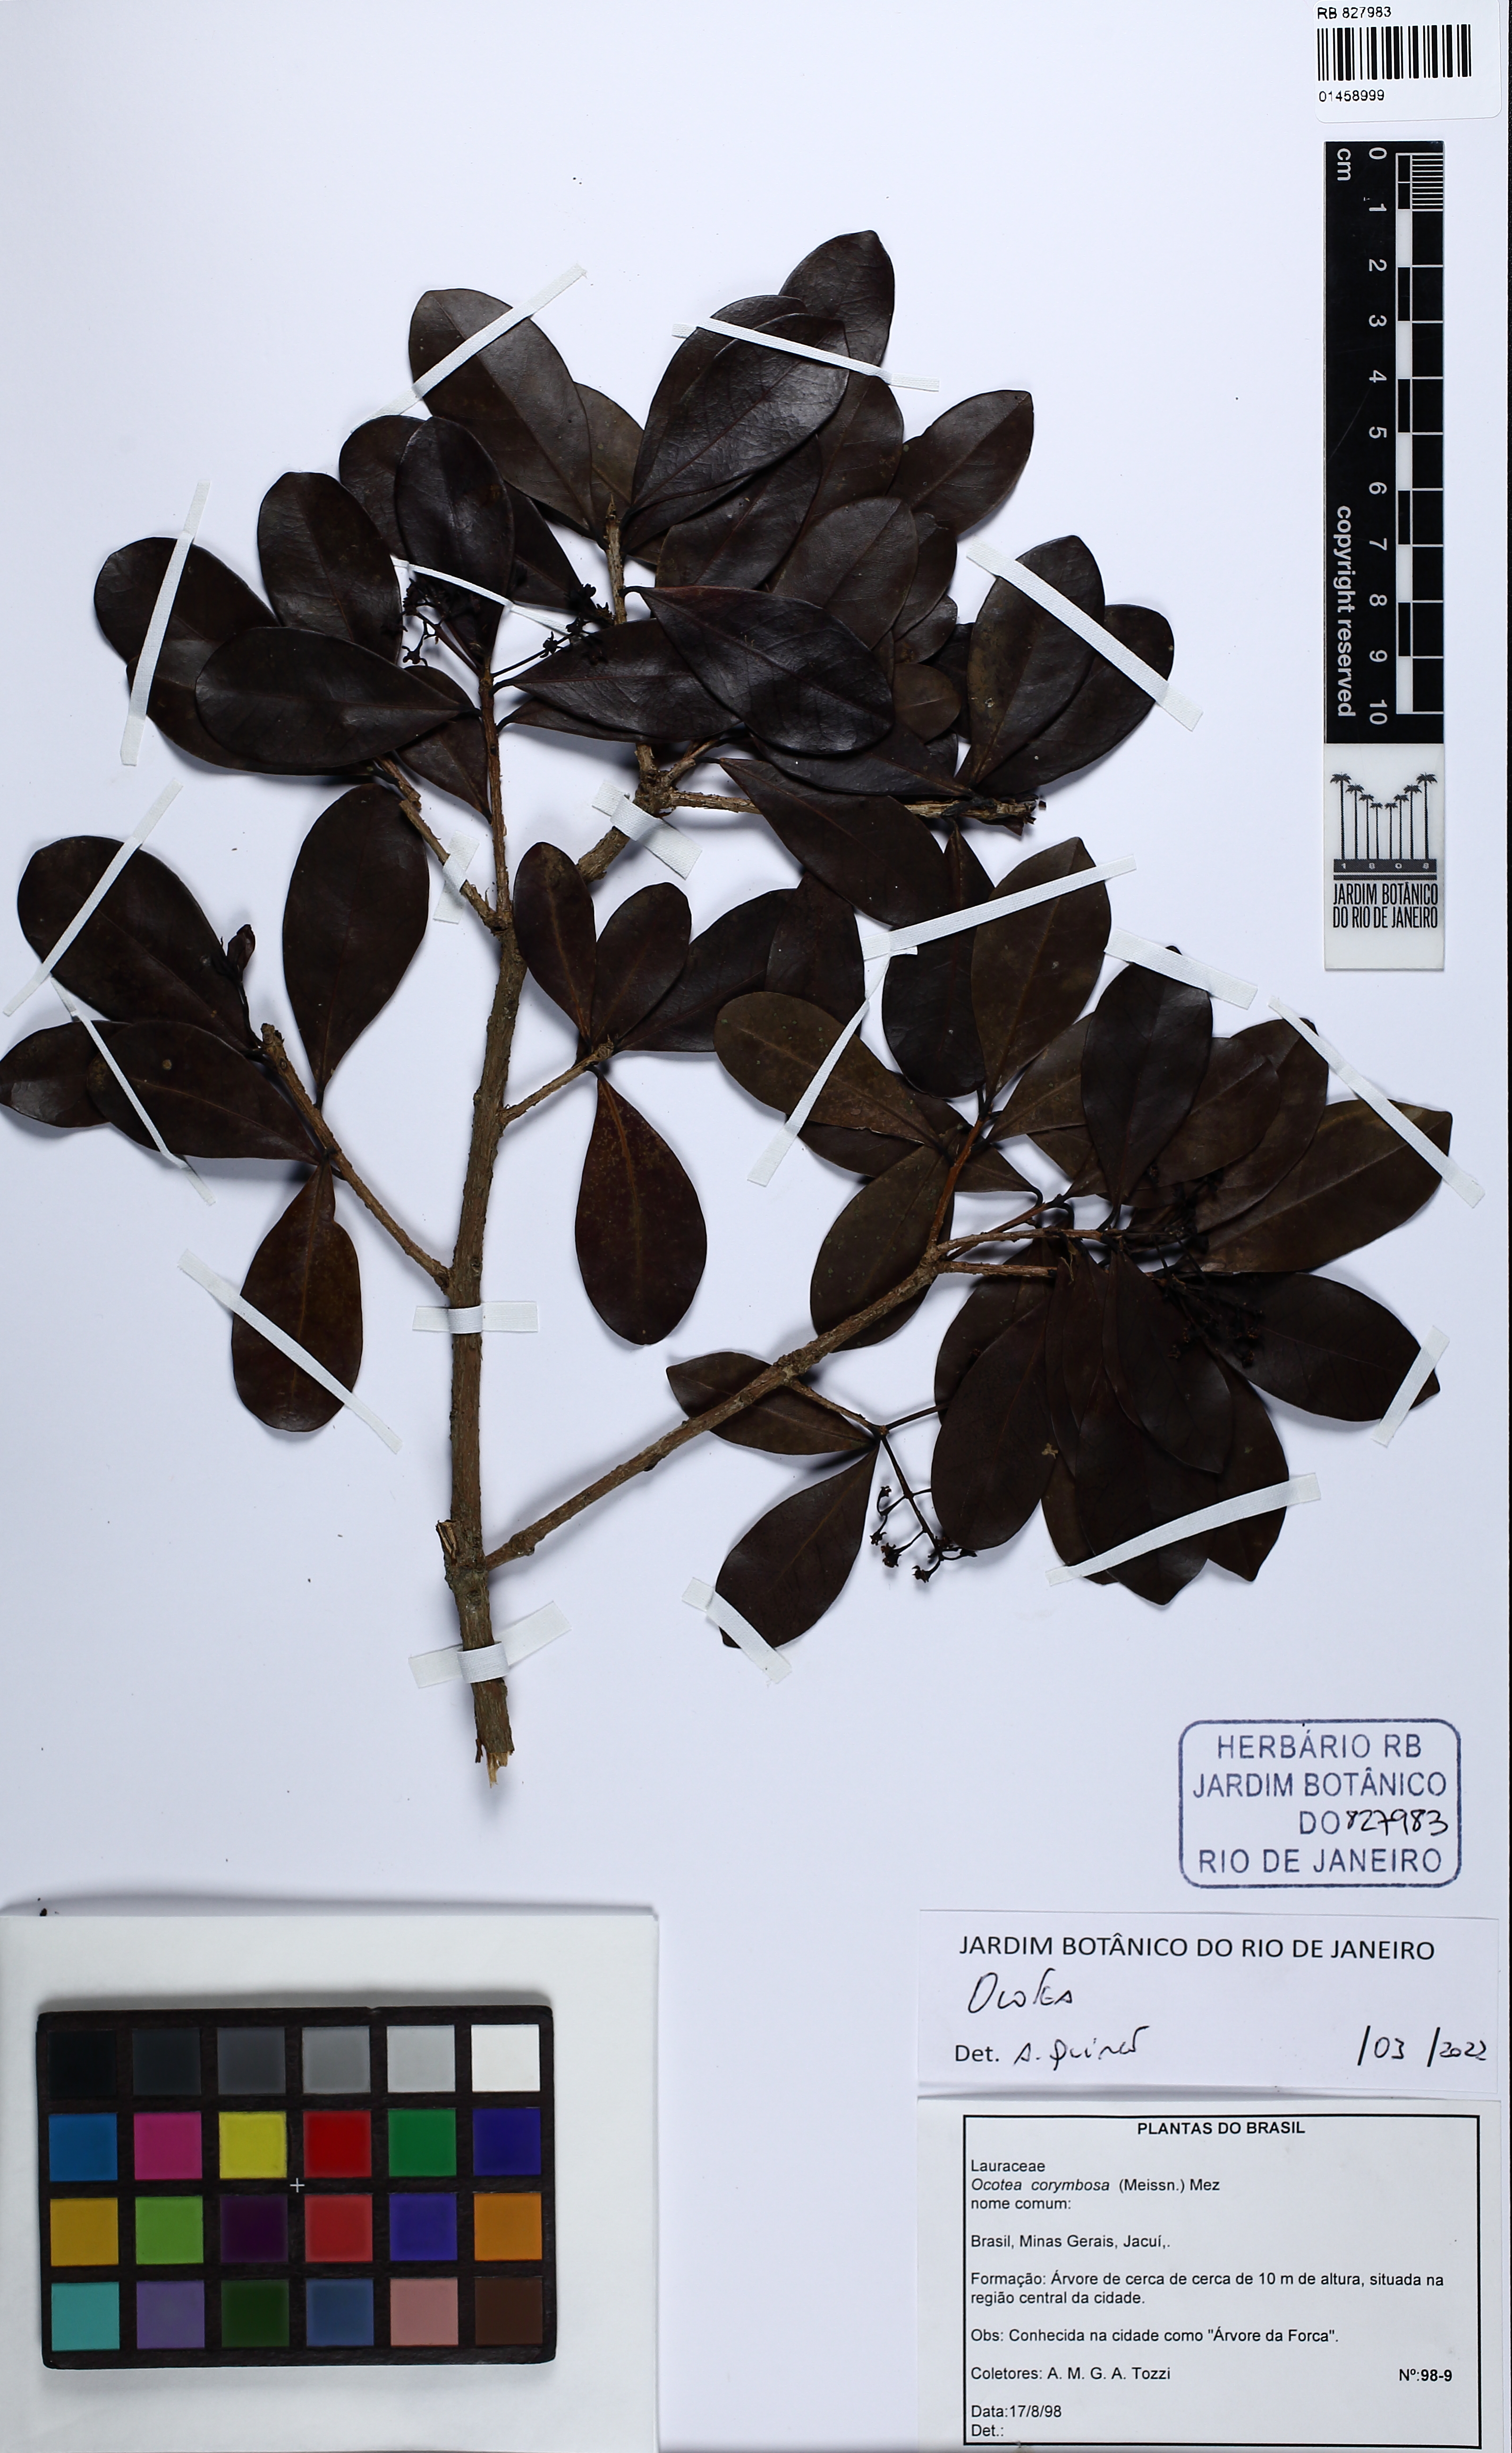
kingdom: Plantae
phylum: Tracheophyta
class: Magnoliopsida
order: Laurales
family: Lauraceae
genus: Ocotea
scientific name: Ocotea
